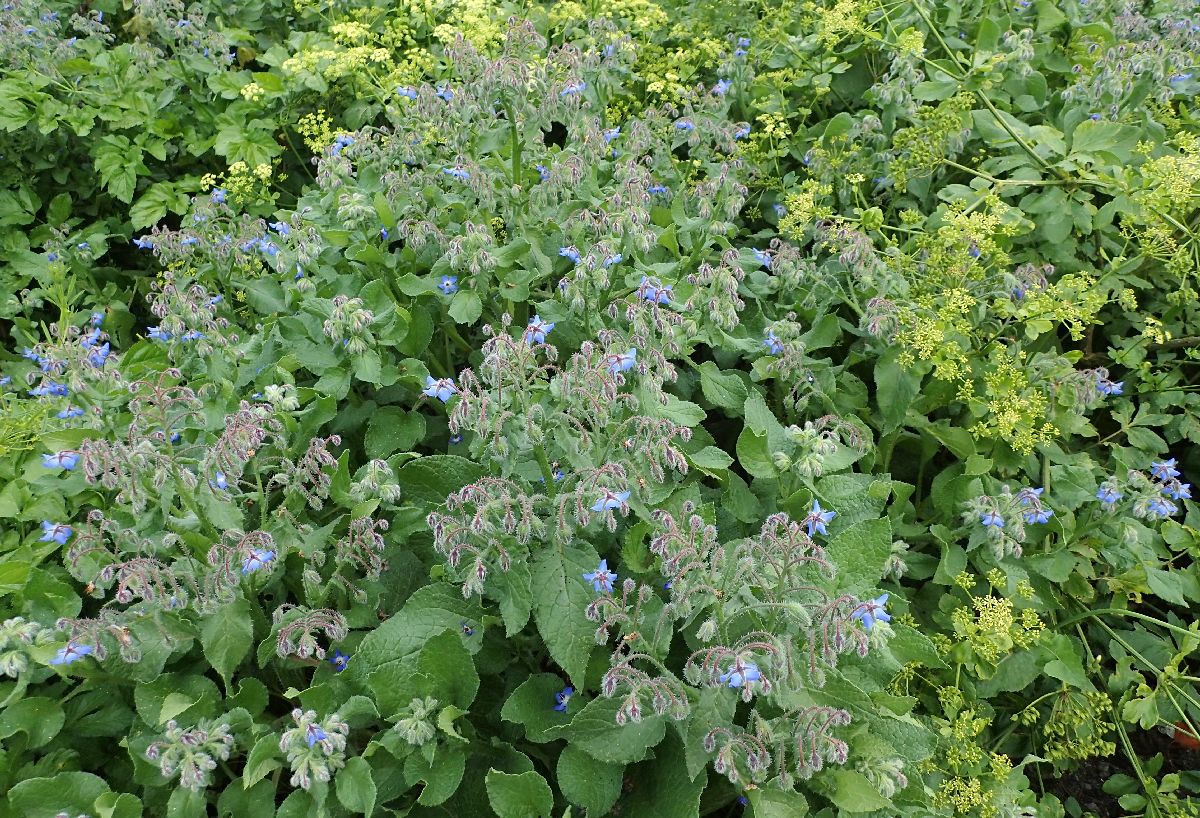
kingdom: Plantae
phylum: Tracheophyta
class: Magnoliopsida
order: Boraginales
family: Boraginaceae
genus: Borago
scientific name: Borago officinalis
